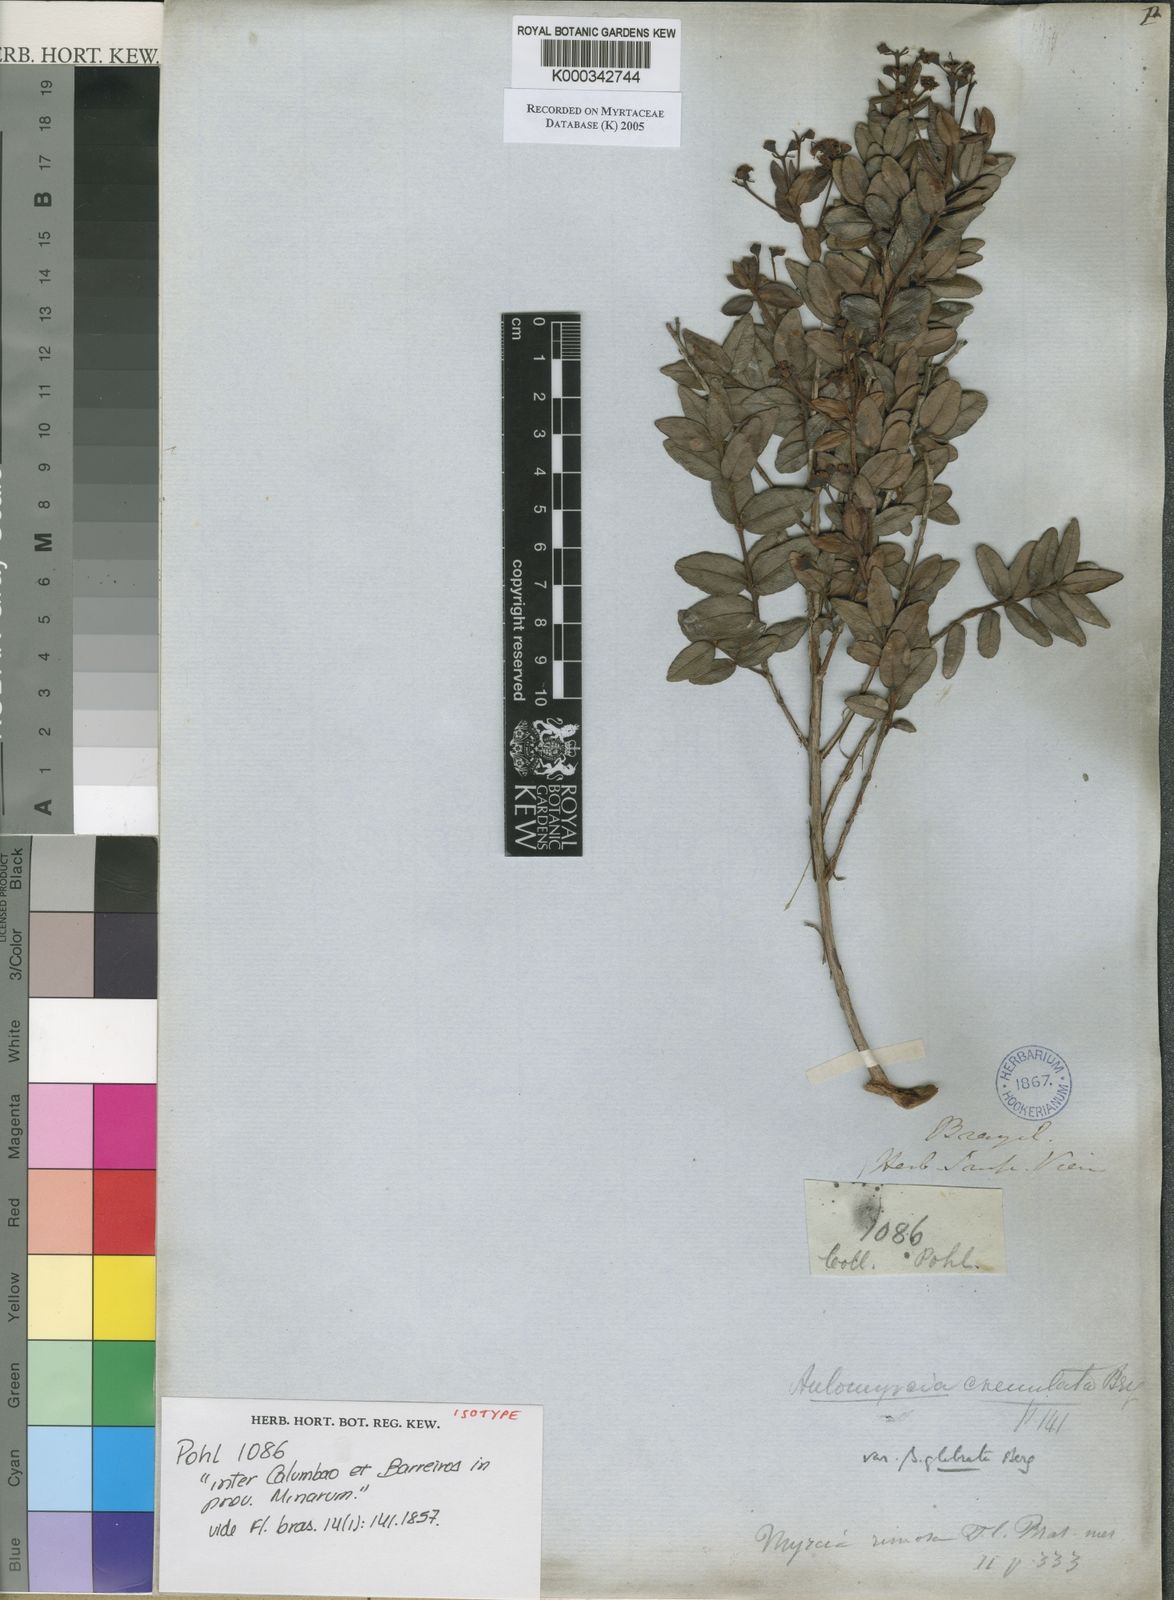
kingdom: Plantae
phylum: Tracheophyta
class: Magnoliopsida
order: Myrtales
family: Myrtaceae
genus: Myrcia
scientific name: Myrcia crenulata
